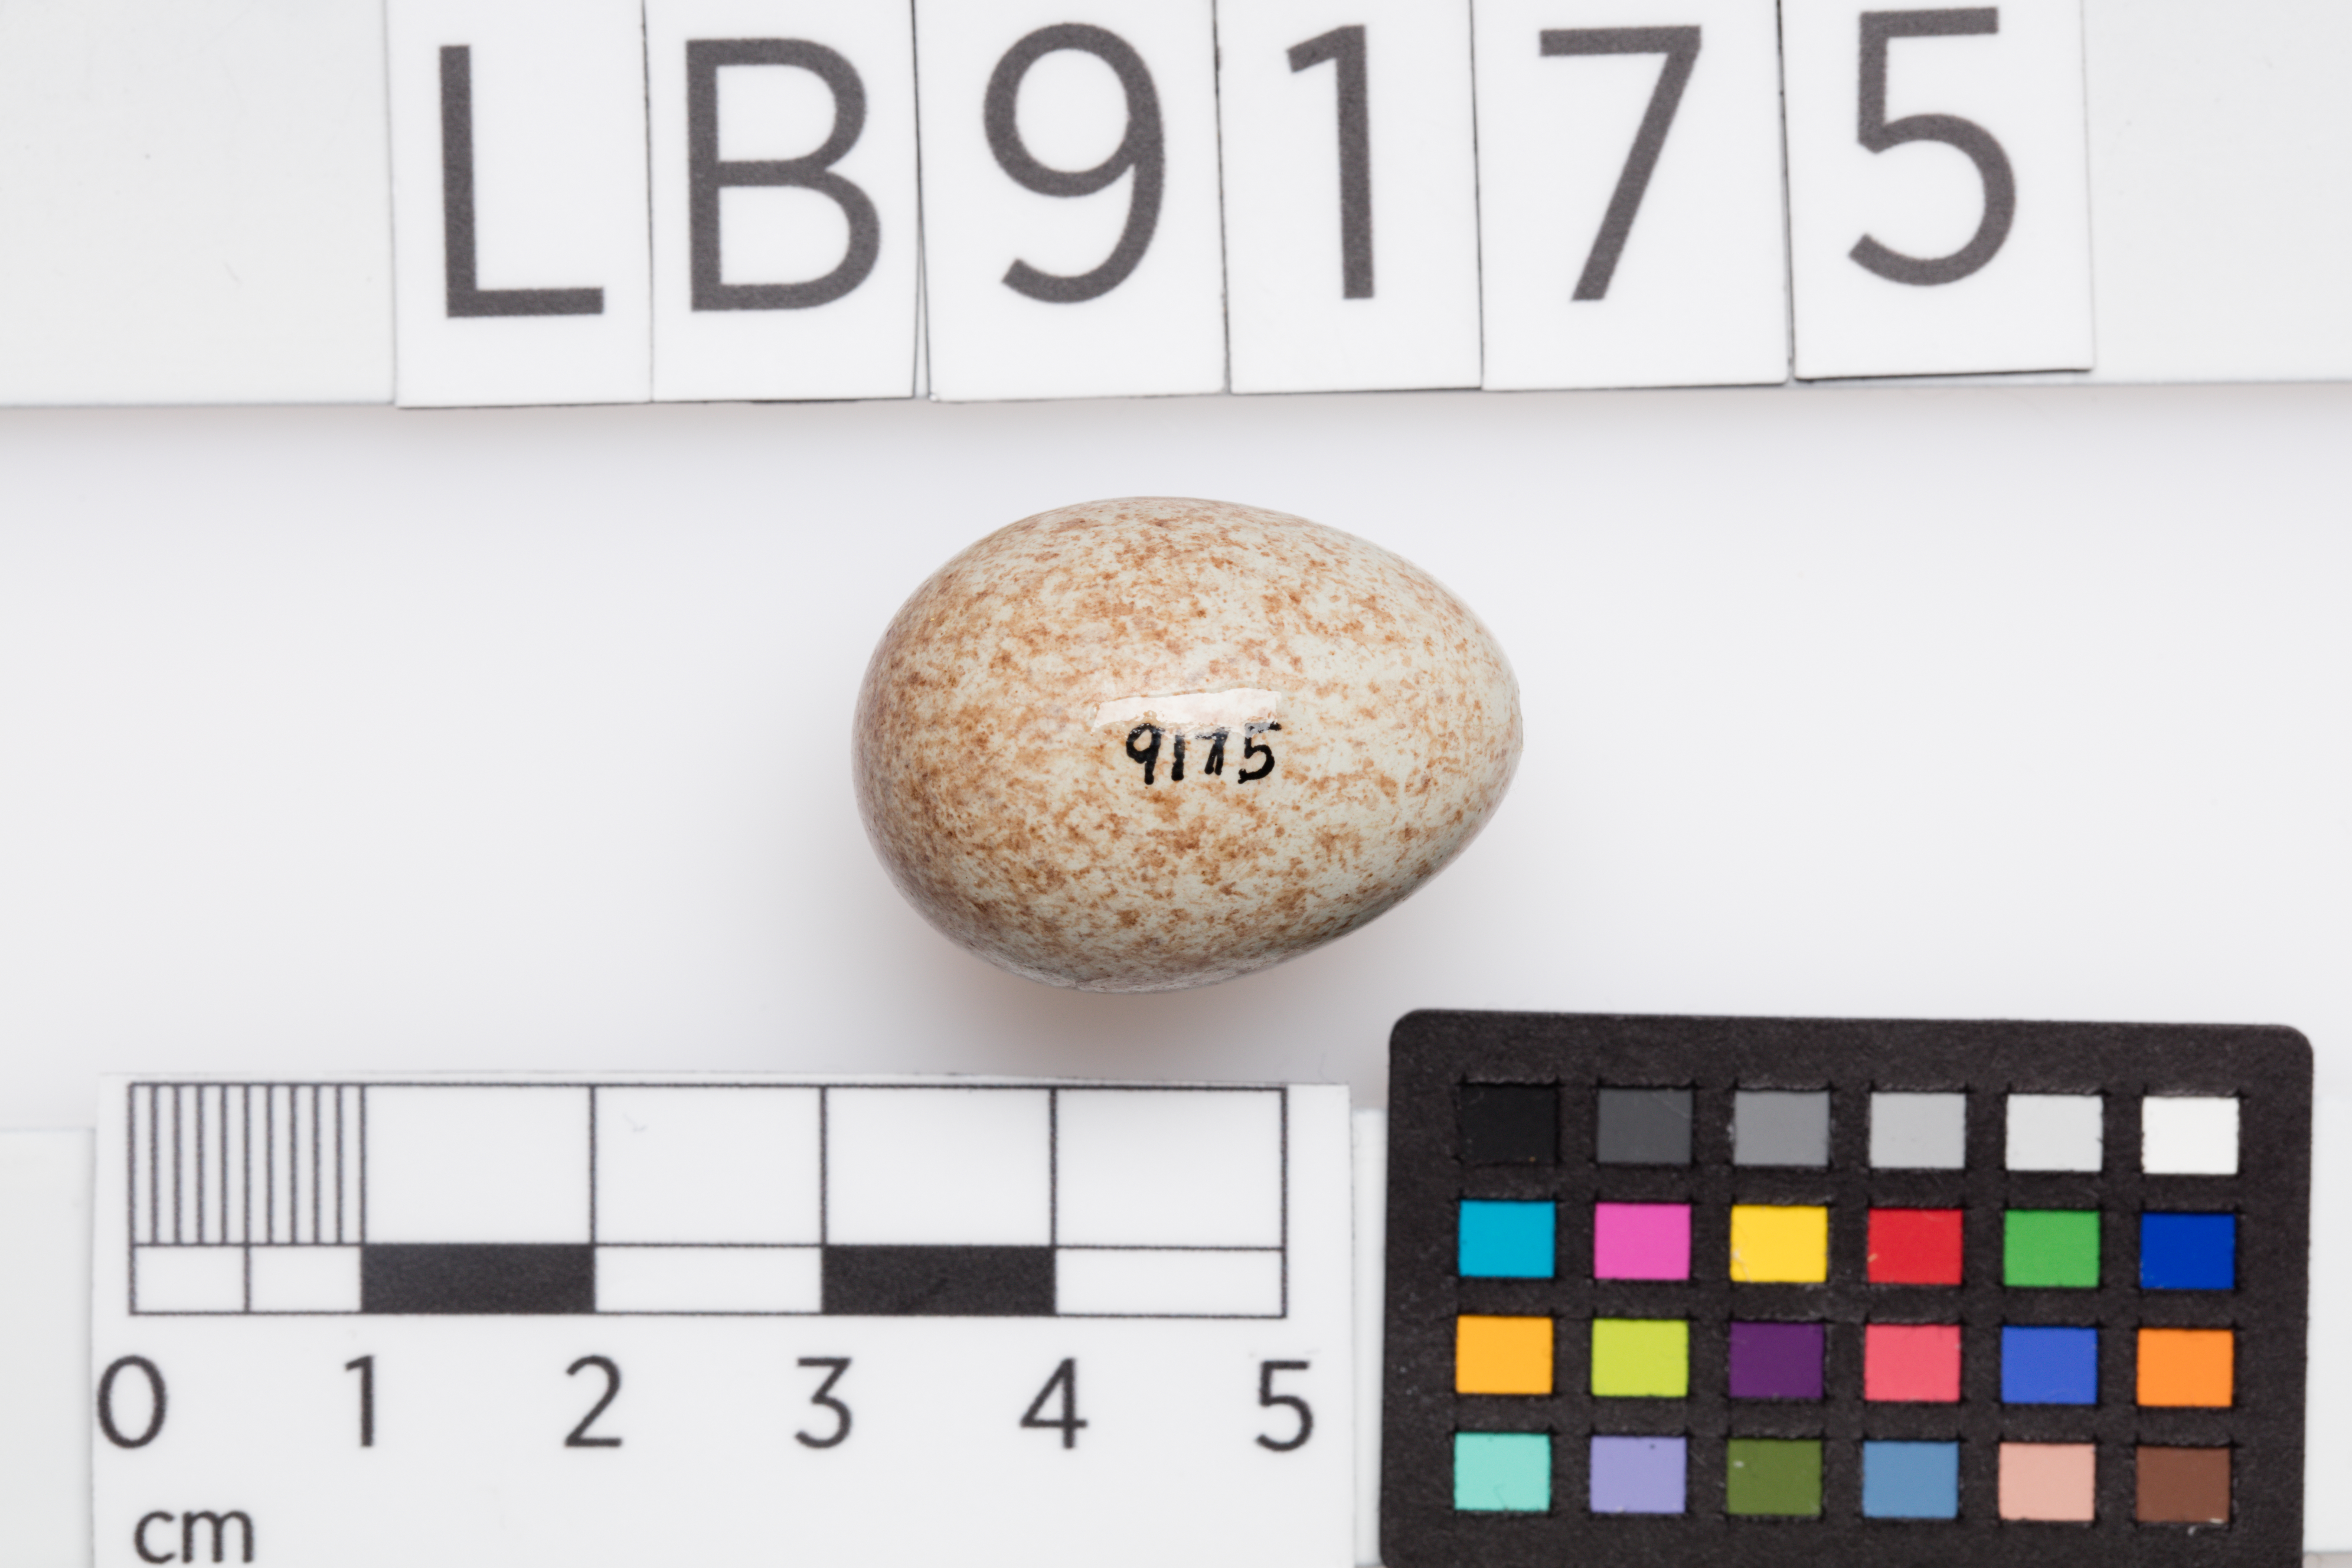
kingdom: Animalia
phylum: Chordata
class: Aves
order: Passeriformes
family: Turdidae
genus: Turdus
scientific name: Turdus merula
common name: Common blackbird
